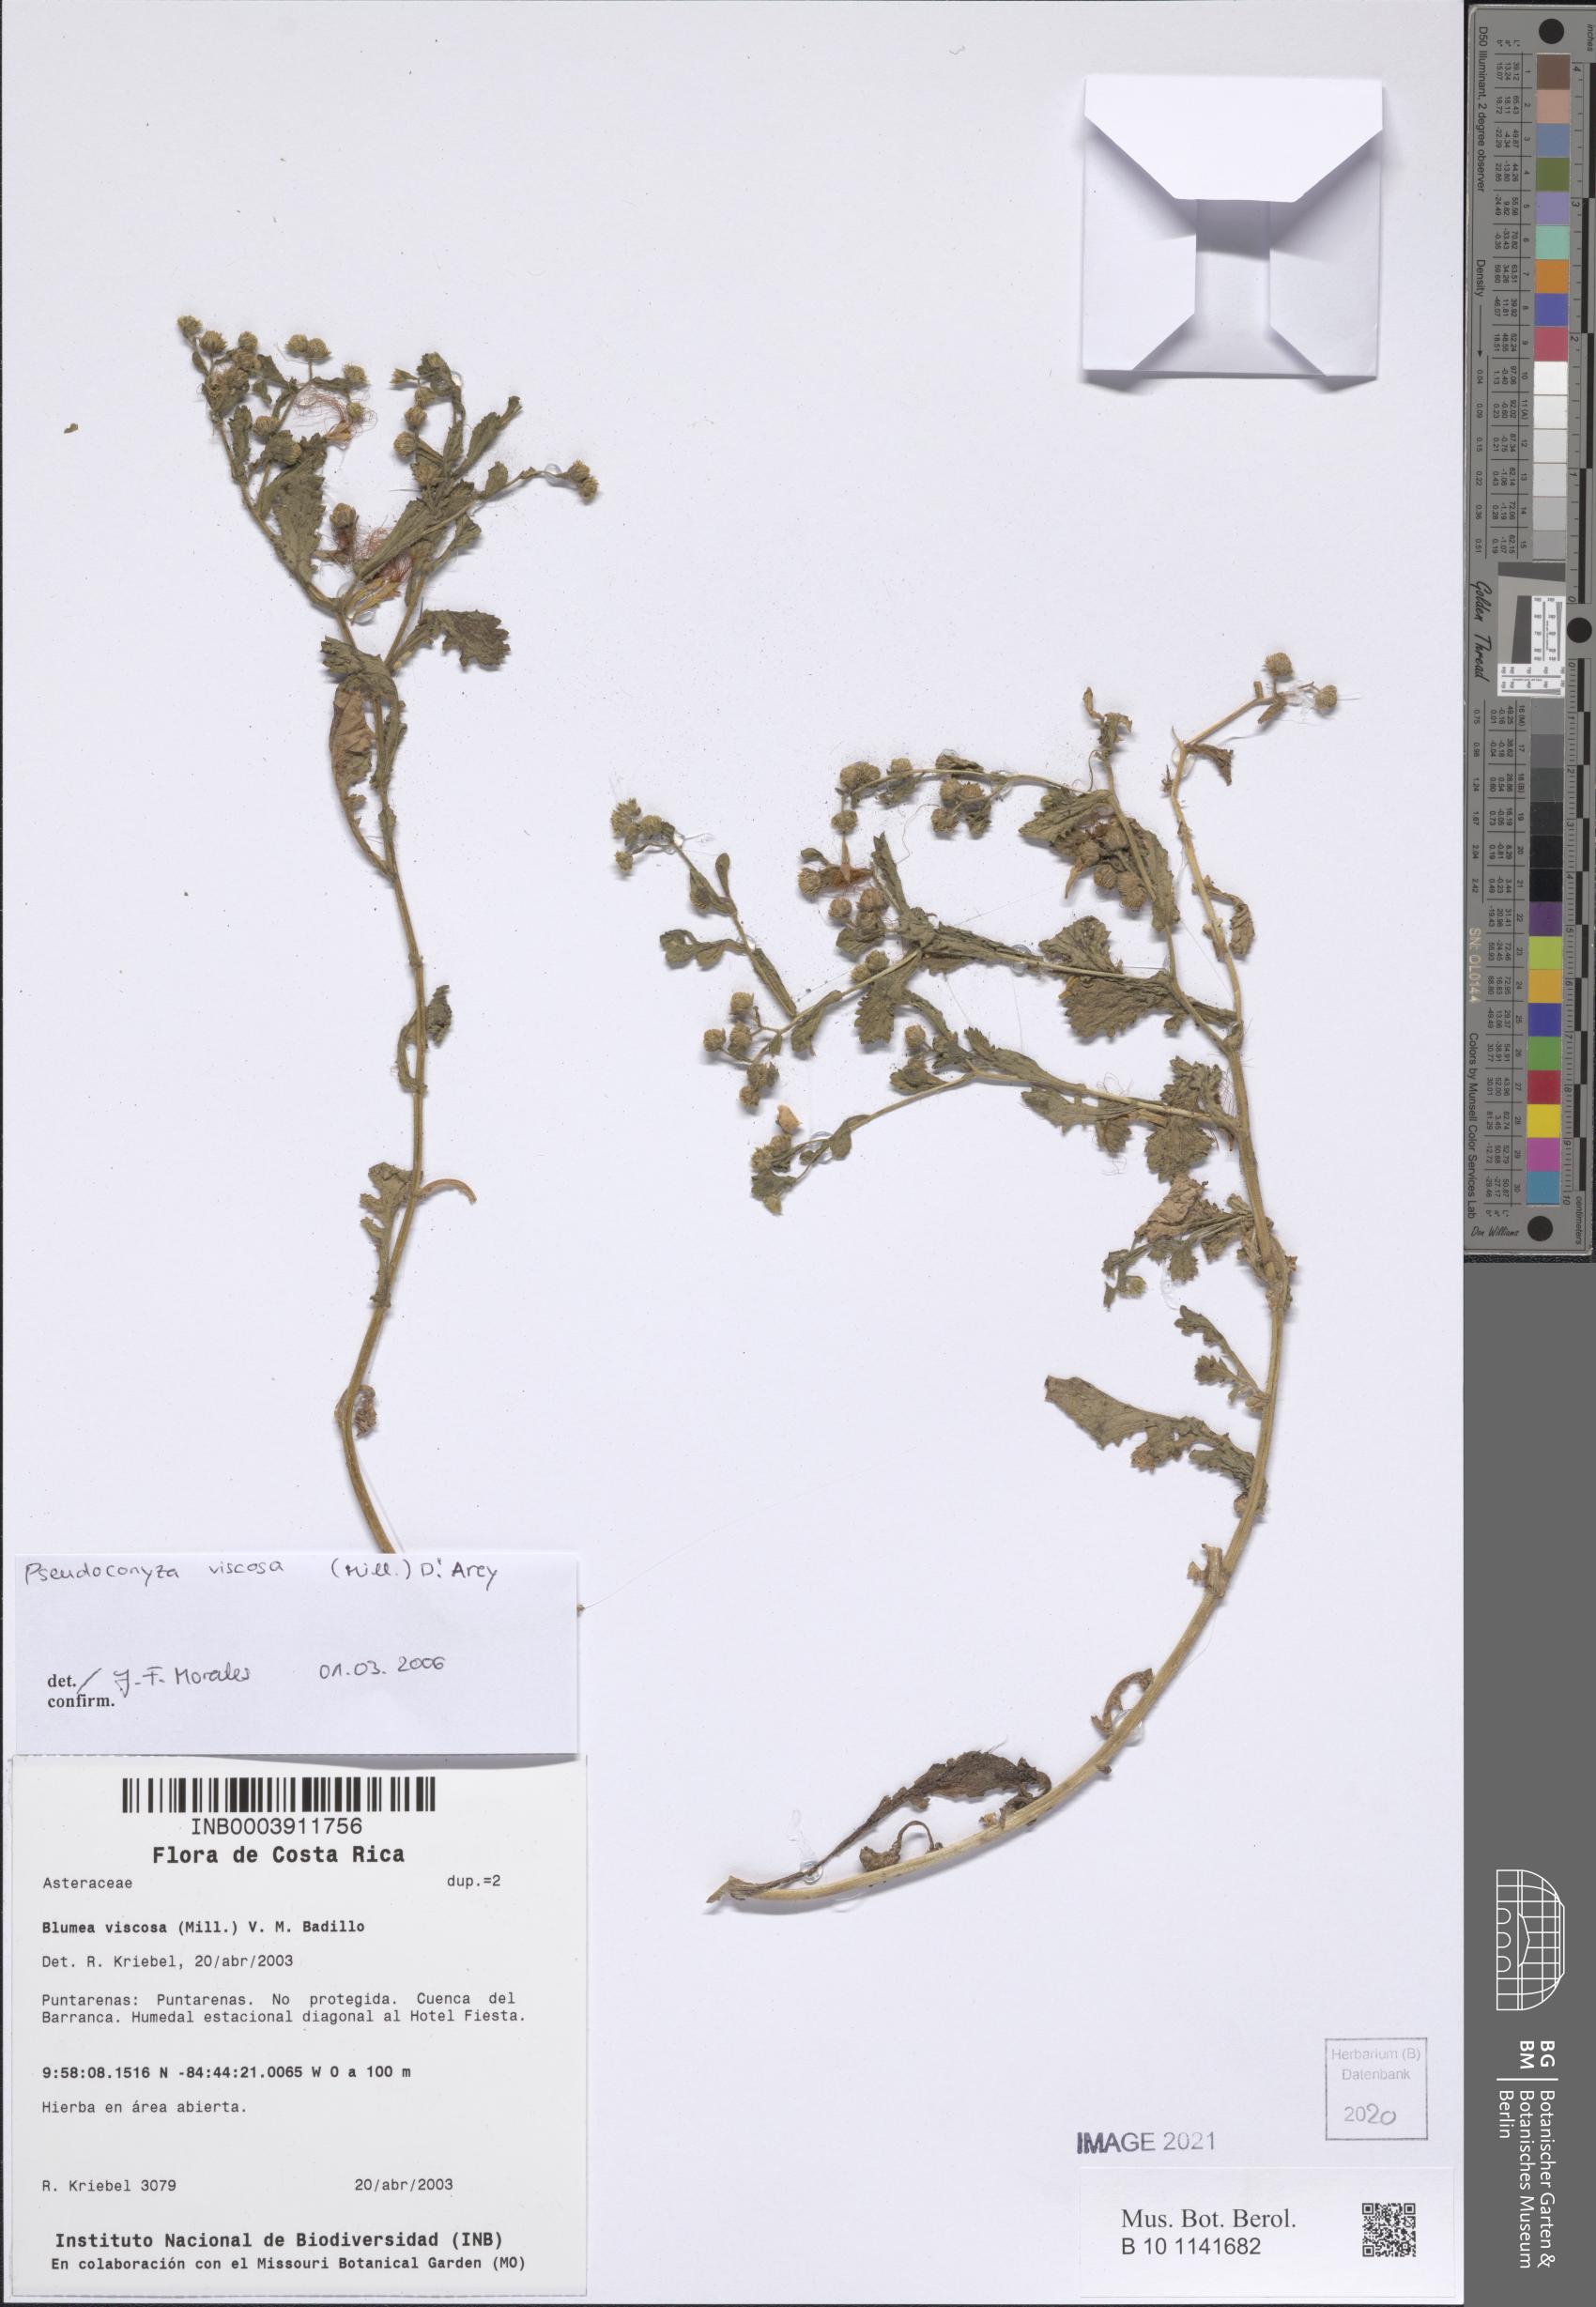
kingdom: Plantae
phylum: Tracheophyta
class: Magnoliopsida
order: Asterales
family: Asteraceae
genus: Pseudoconyza
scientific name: Pseudoconyza viscosa
